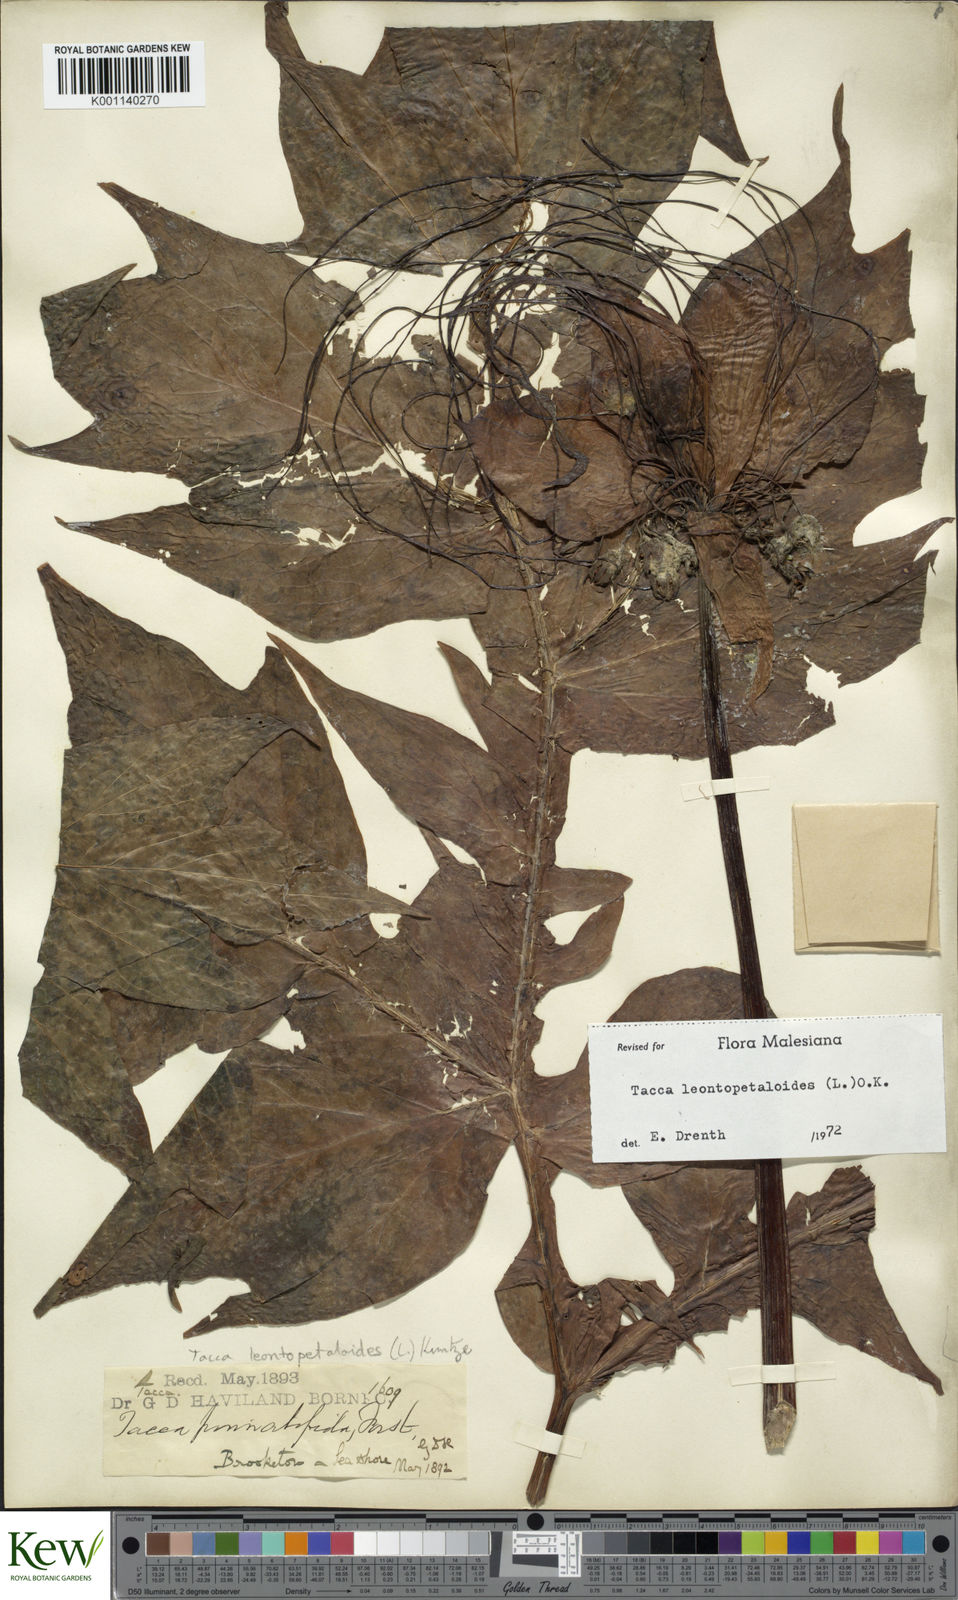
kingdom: Plantae
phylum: Tracheophyta
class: Liliopsida
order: Dioscoreales
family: Dioscoreaceae
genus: Tacca
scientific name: Tacca leontopetaloides
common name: Arrowroot
